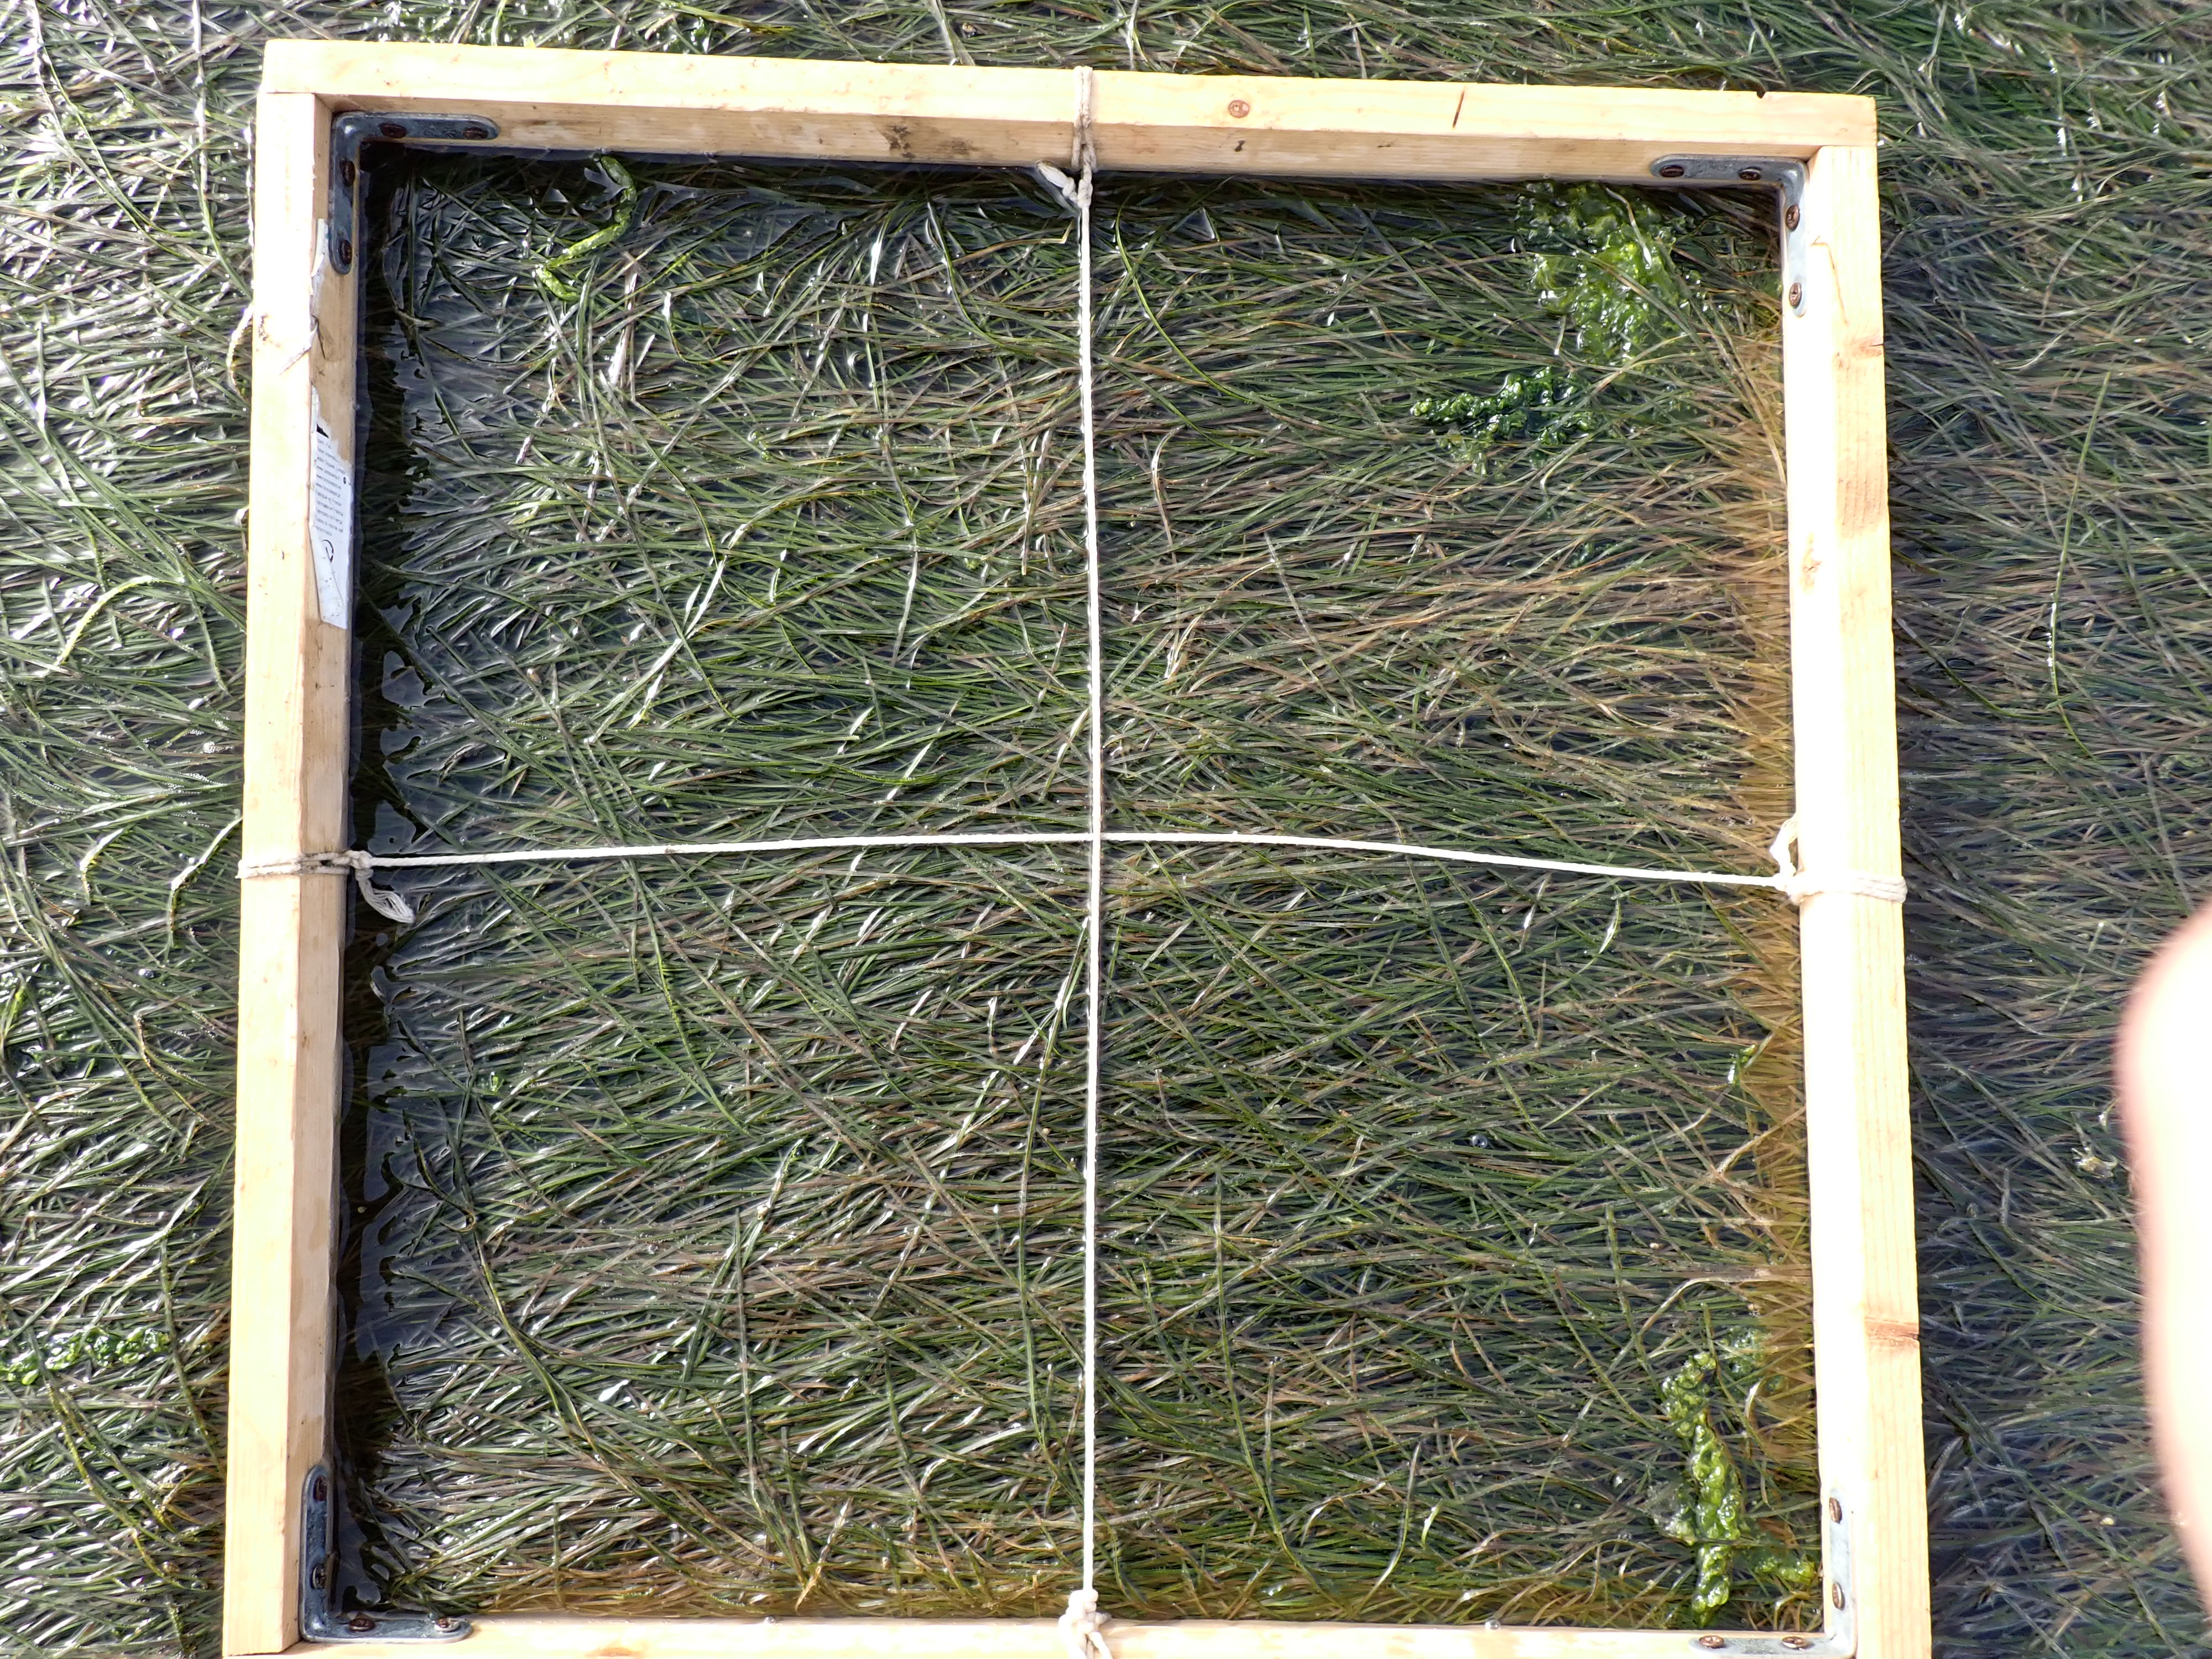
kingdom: Plantae
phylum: Chlorophyta
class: Ulvophyceae
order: Ulvales
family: Ulvaceae
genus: Ulva
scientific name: Ulva
